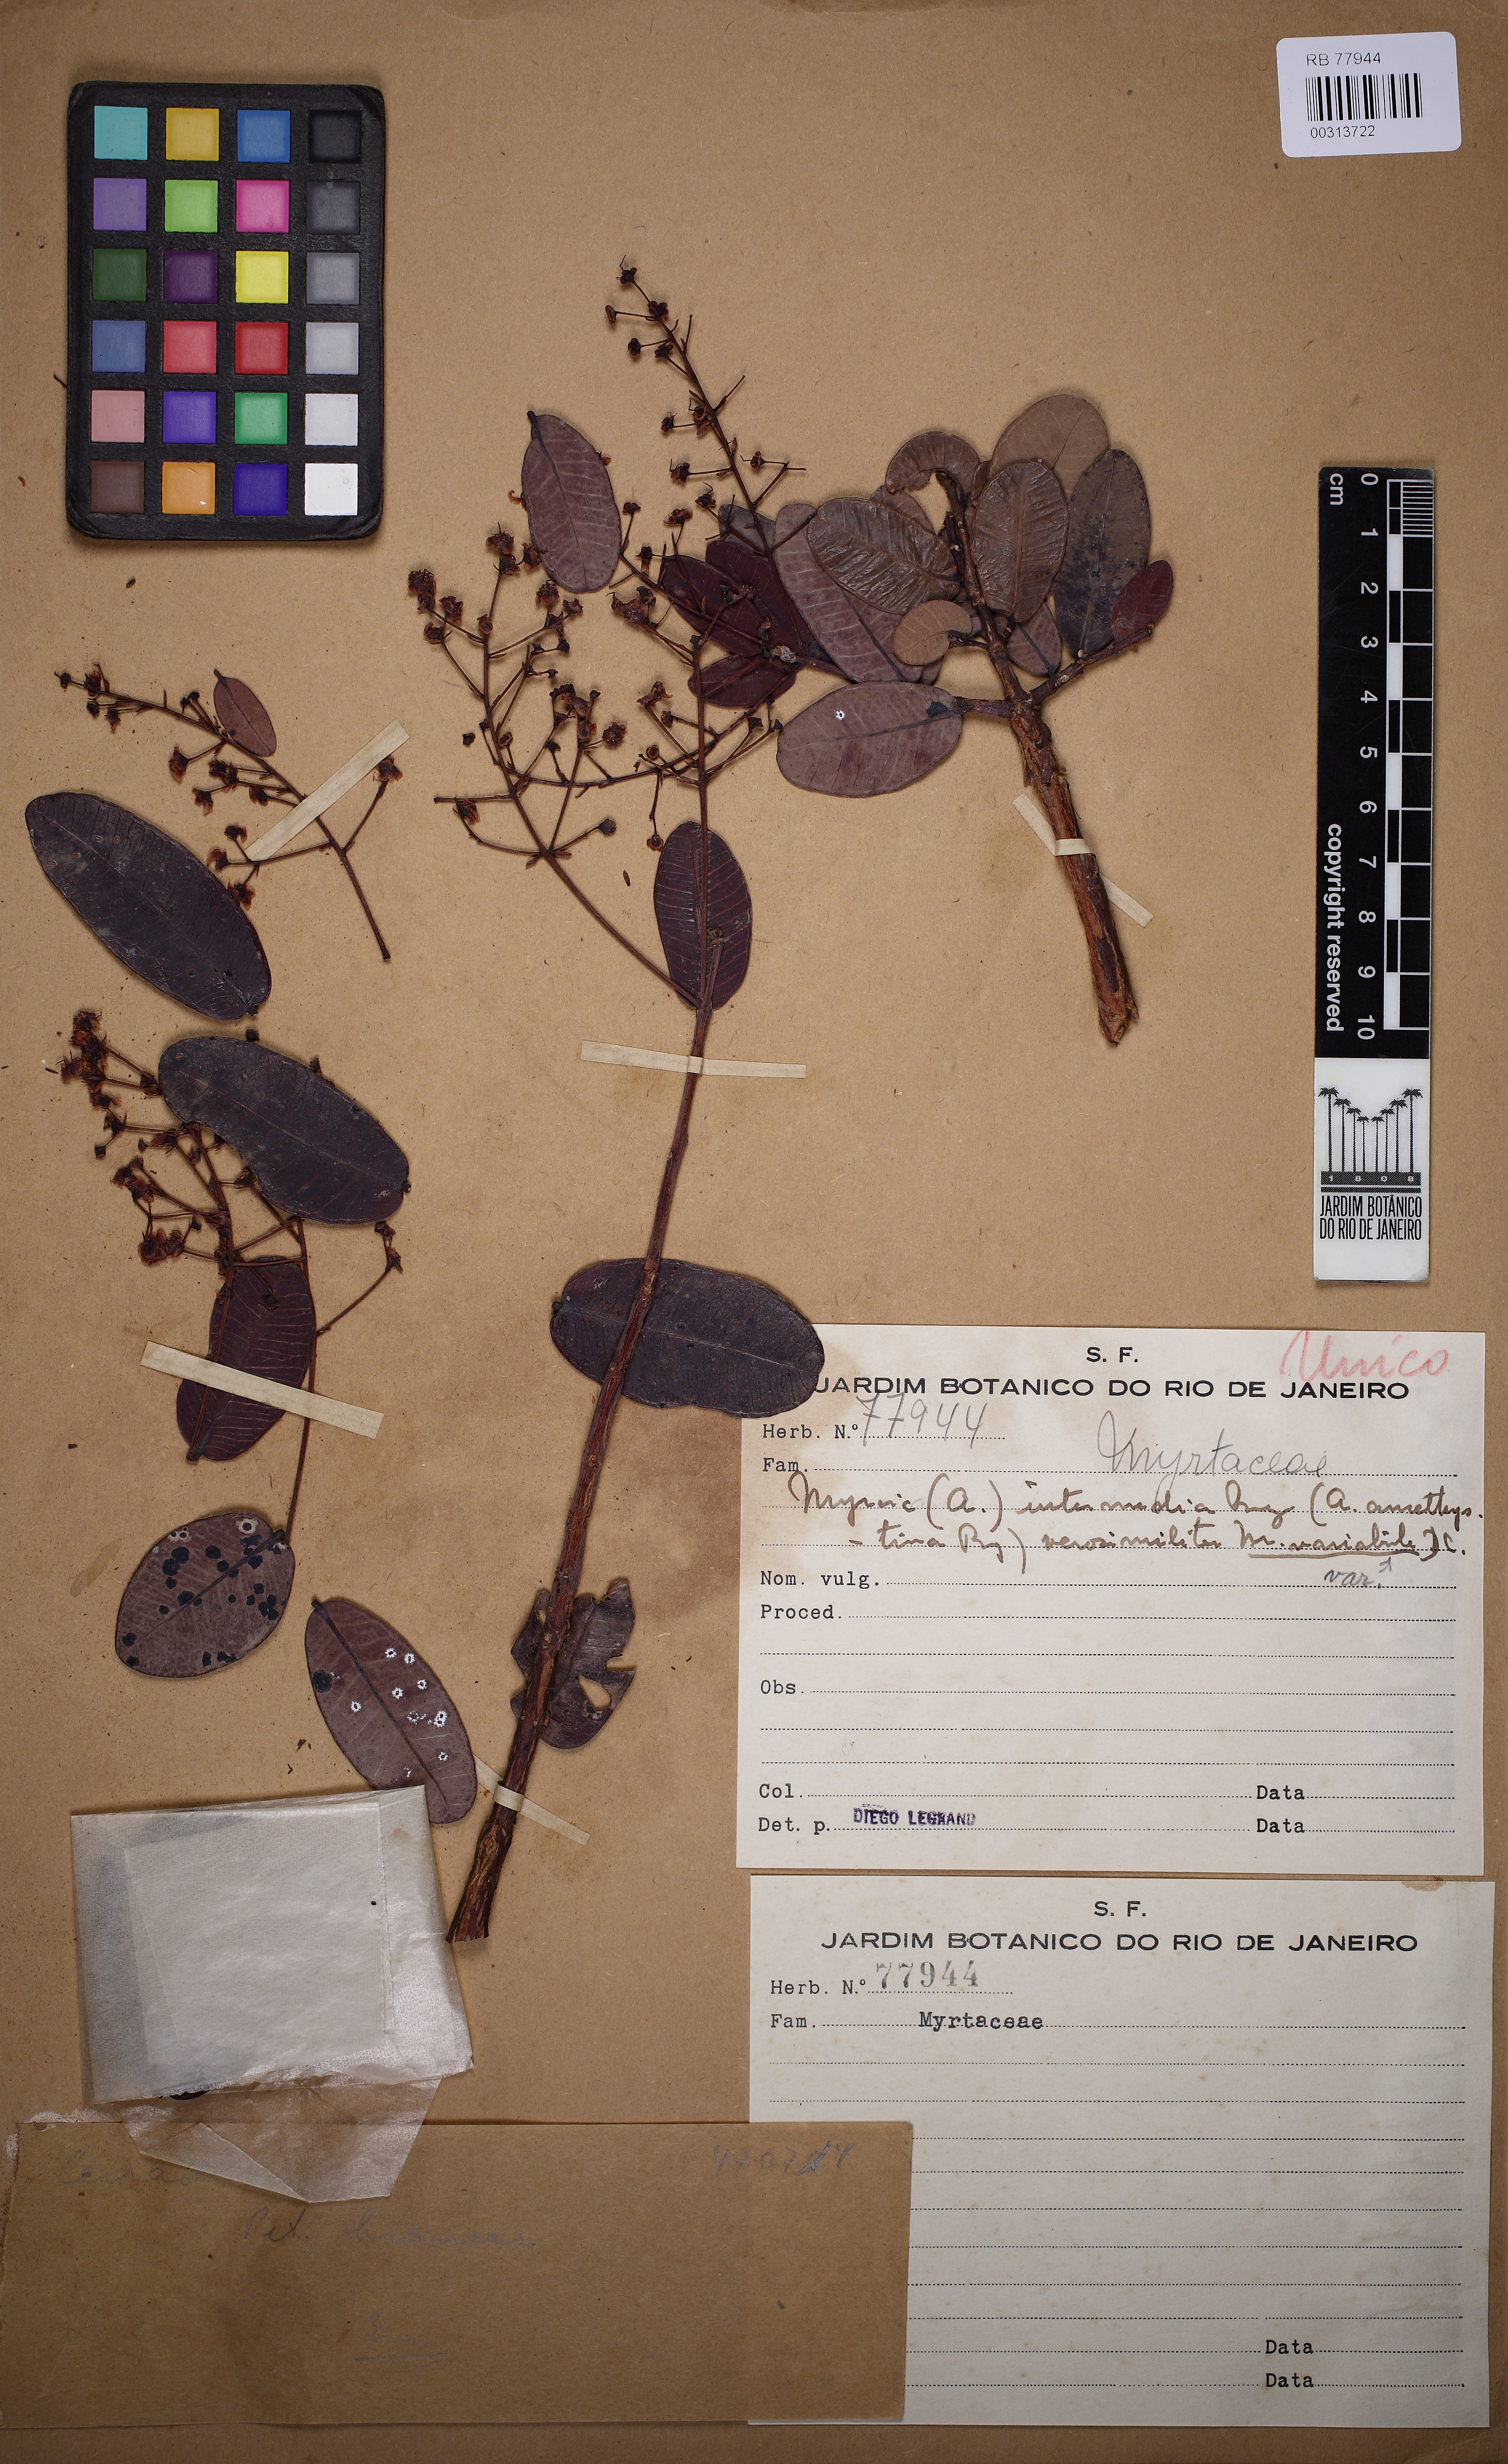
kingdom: Plantae
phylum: Tracheophyta
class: Magnoliopsida
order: Myrtales
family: Myrtaceae
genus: Myrcia
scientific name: Myrcia variabilis
